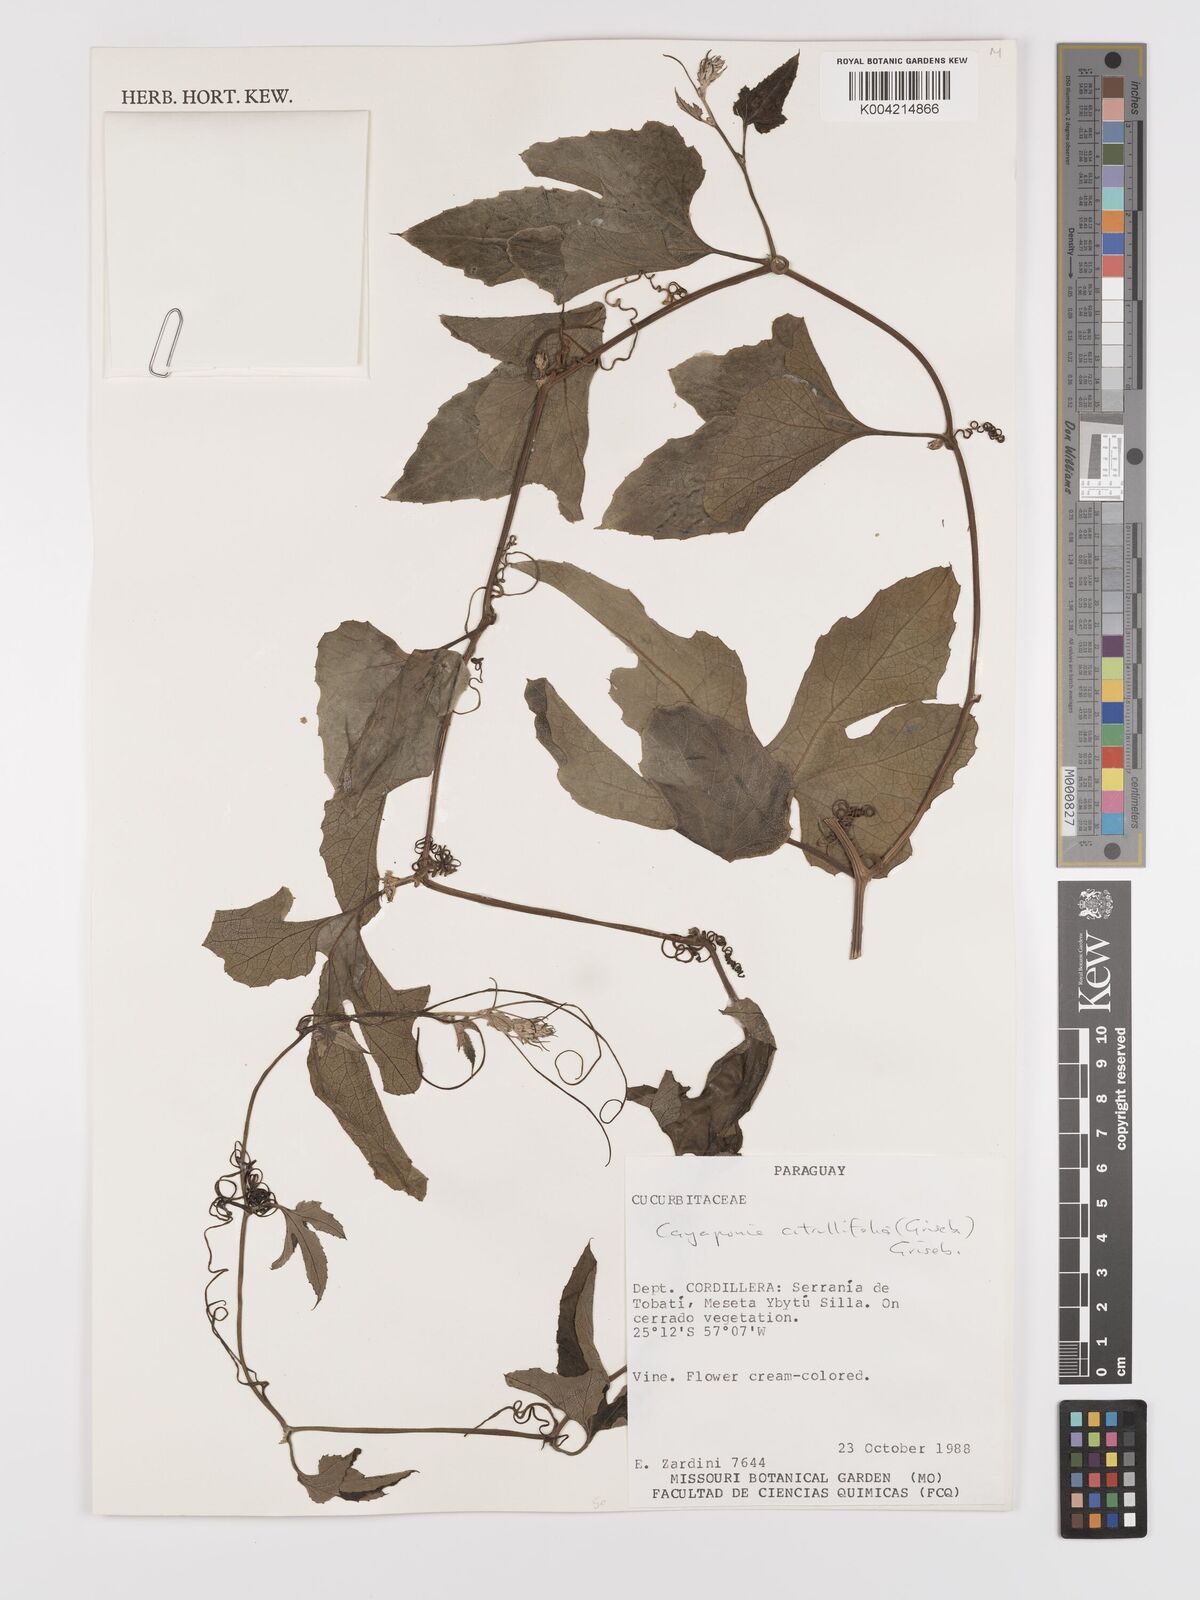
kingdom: Plantae
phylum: Tracheophyta
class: Magnoliopsida
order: Cucurbitales
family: Cucurbitaceae
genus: Cayaponia
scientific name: Cayaponia citrullifolia
